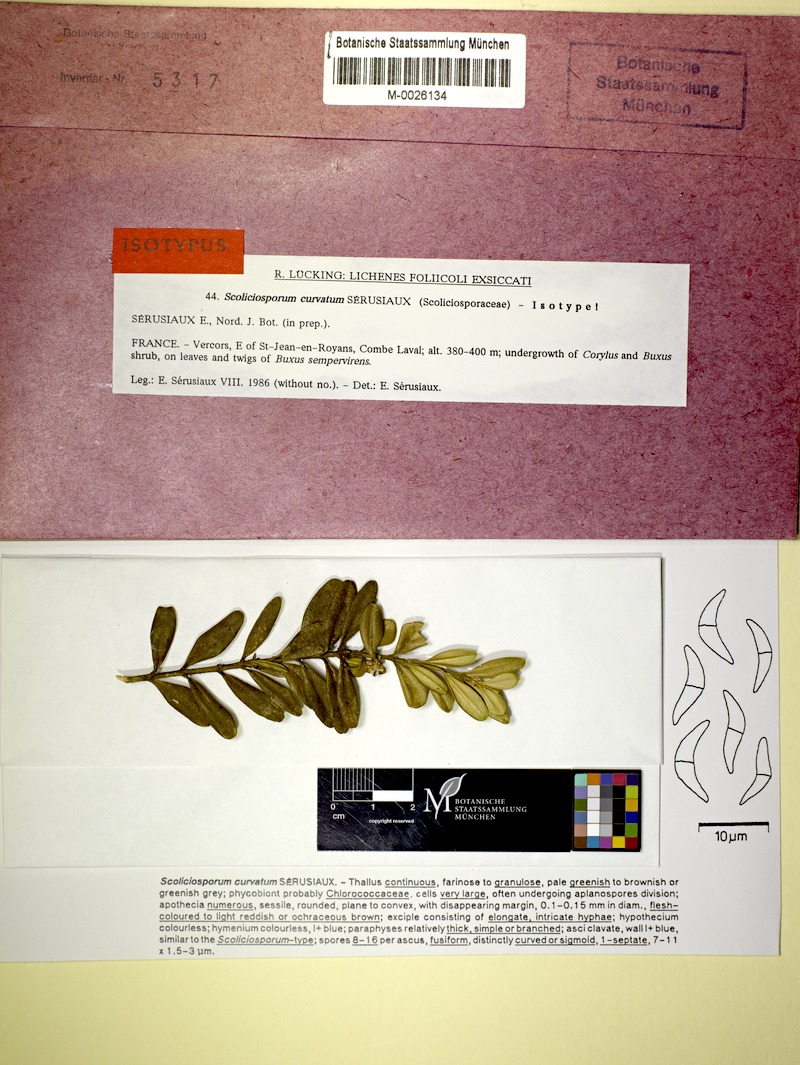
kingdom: Fungi
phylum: Ascomycota
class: Lecanoromycetes
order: Lecanorales
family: Scoliciosporaceae
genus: Scoliciosporum
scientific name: Scoliciosporum curvatum
